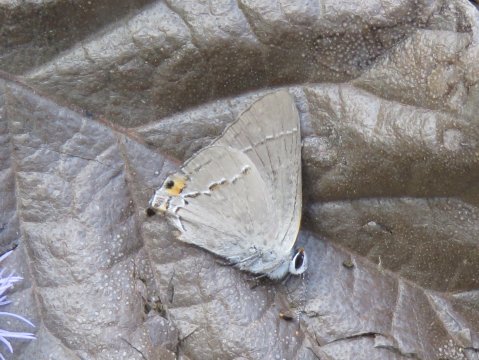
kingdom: Animalia
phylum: Arthropoda
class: Insecta
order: Lepidoptera
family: Lycaenidae
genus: Strymon
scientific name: Strymon melinus
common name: Gray Hairstreak
